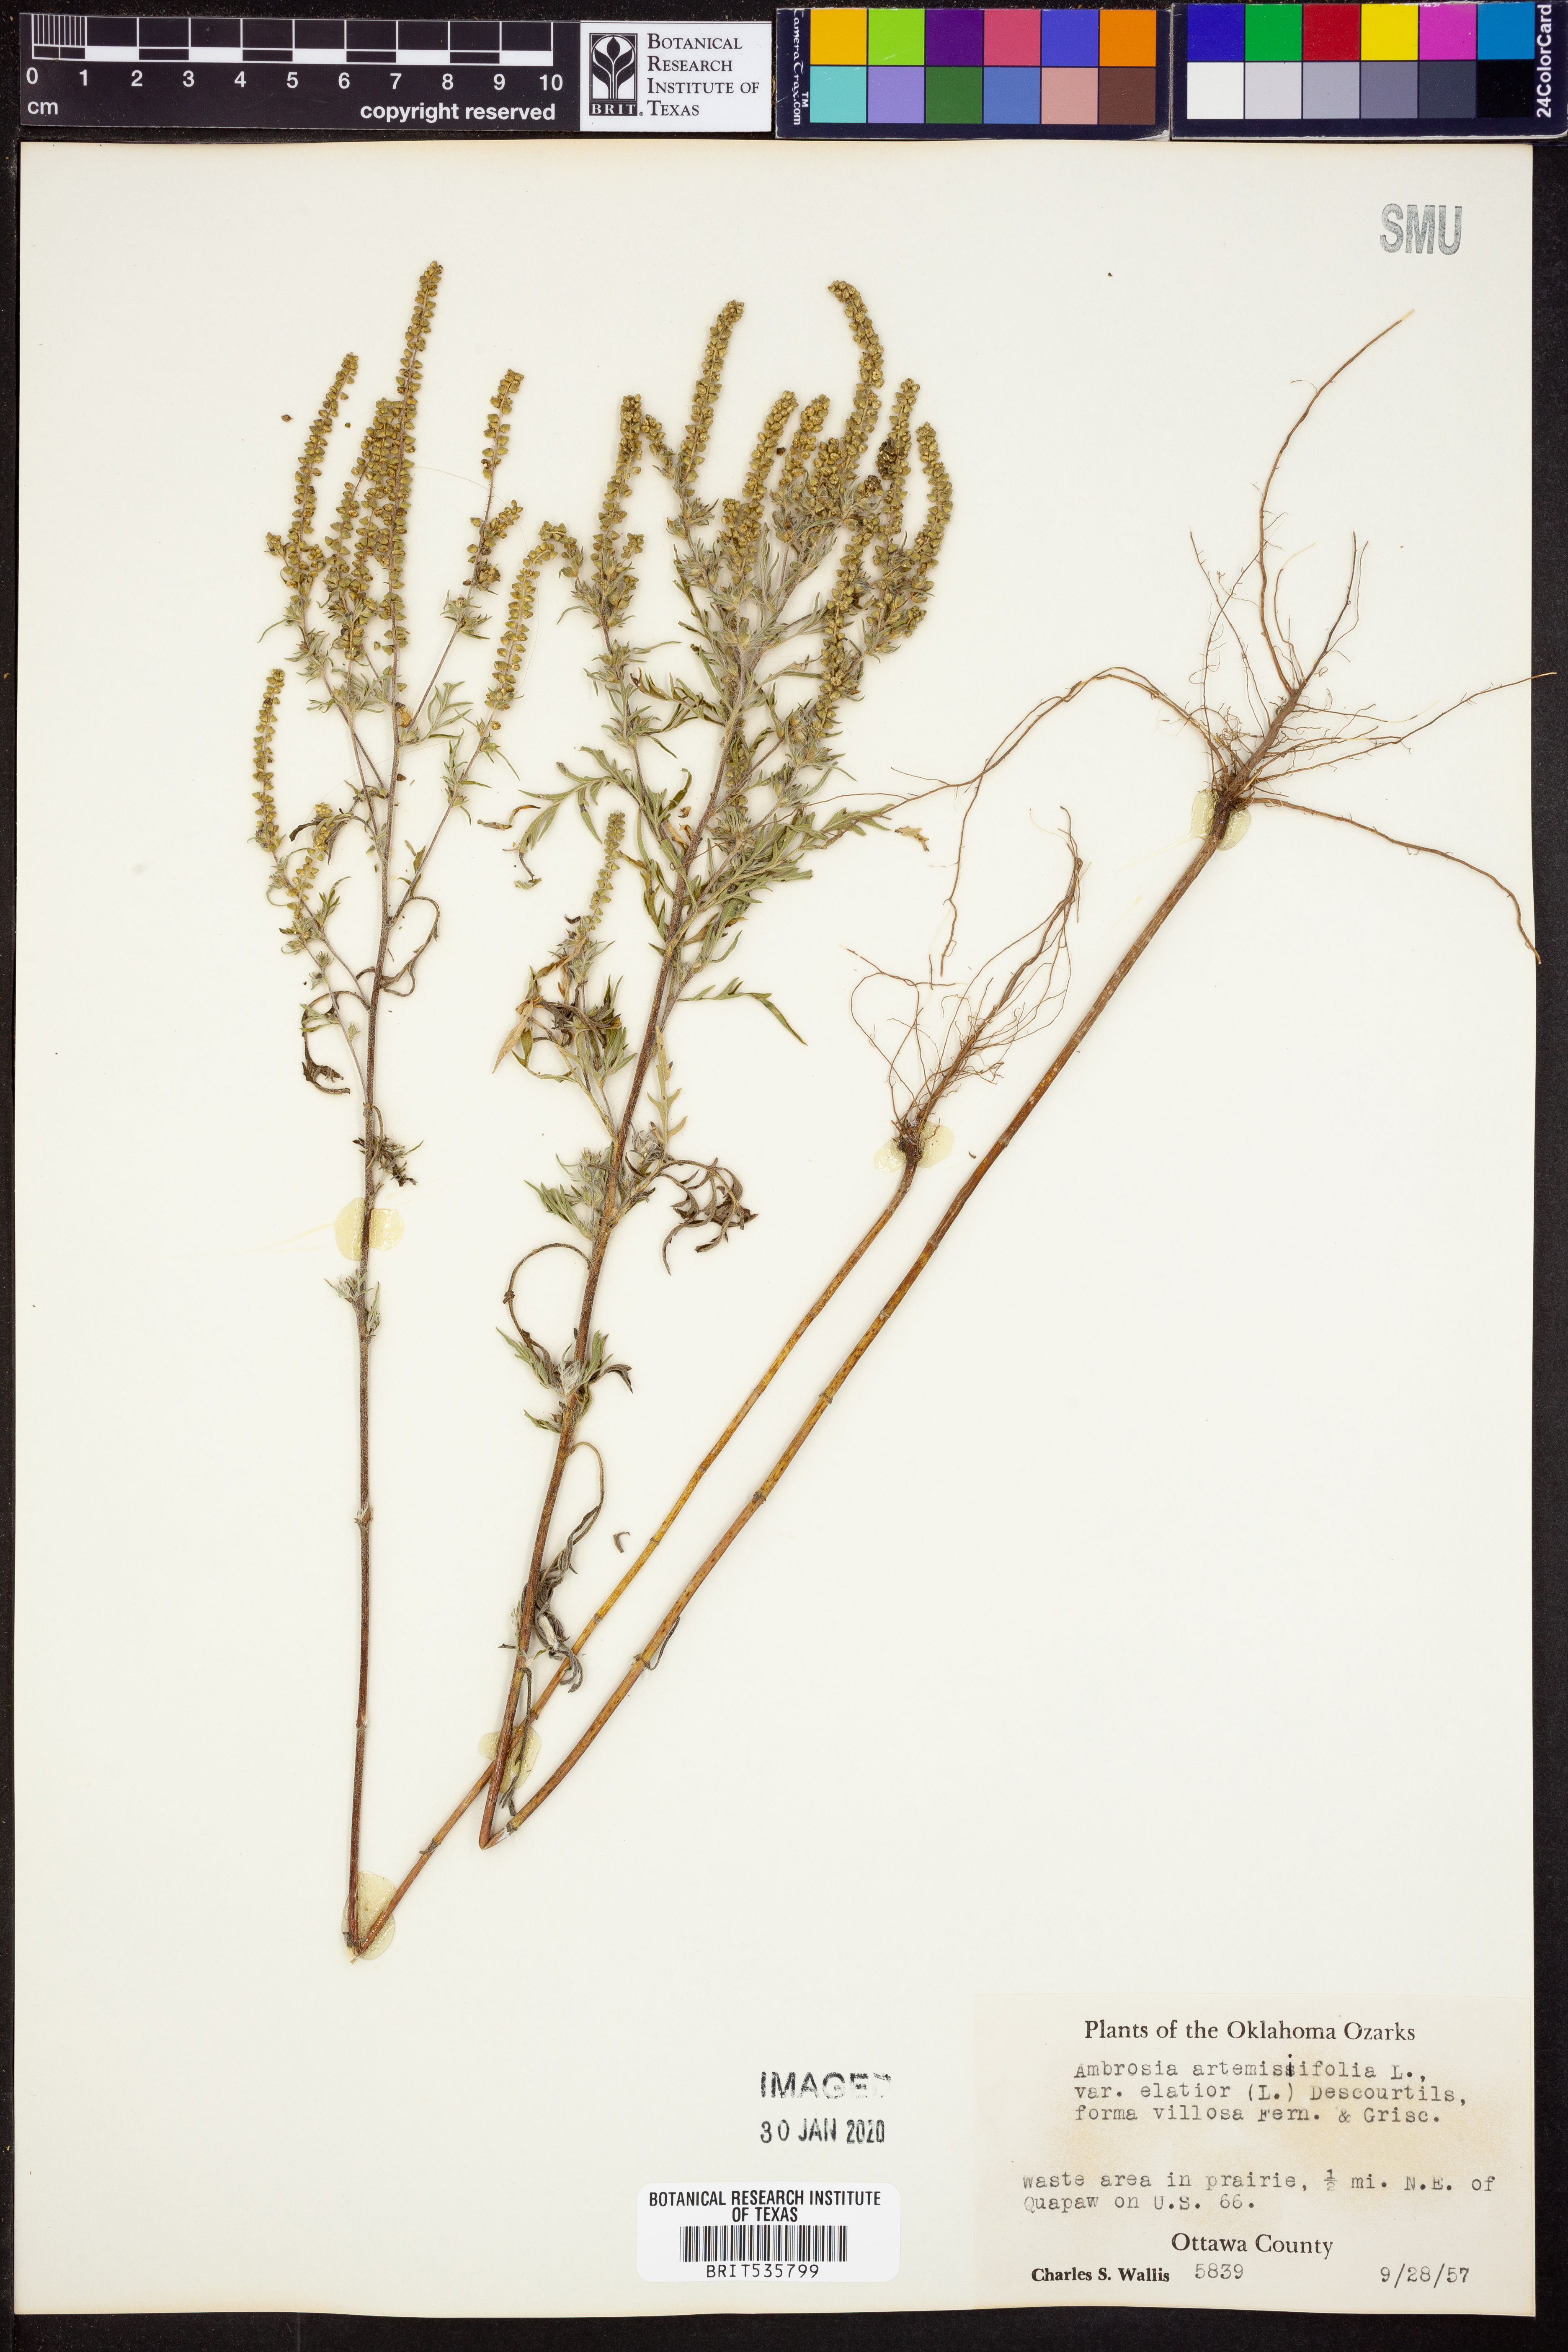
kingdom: Plantae
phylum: Tracheophyta
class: Magnoliopsida
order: Asterales
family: Asteraceae
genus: Ambrosia
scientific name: Ambrosia artemisiifolia
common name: Annual ragweed
